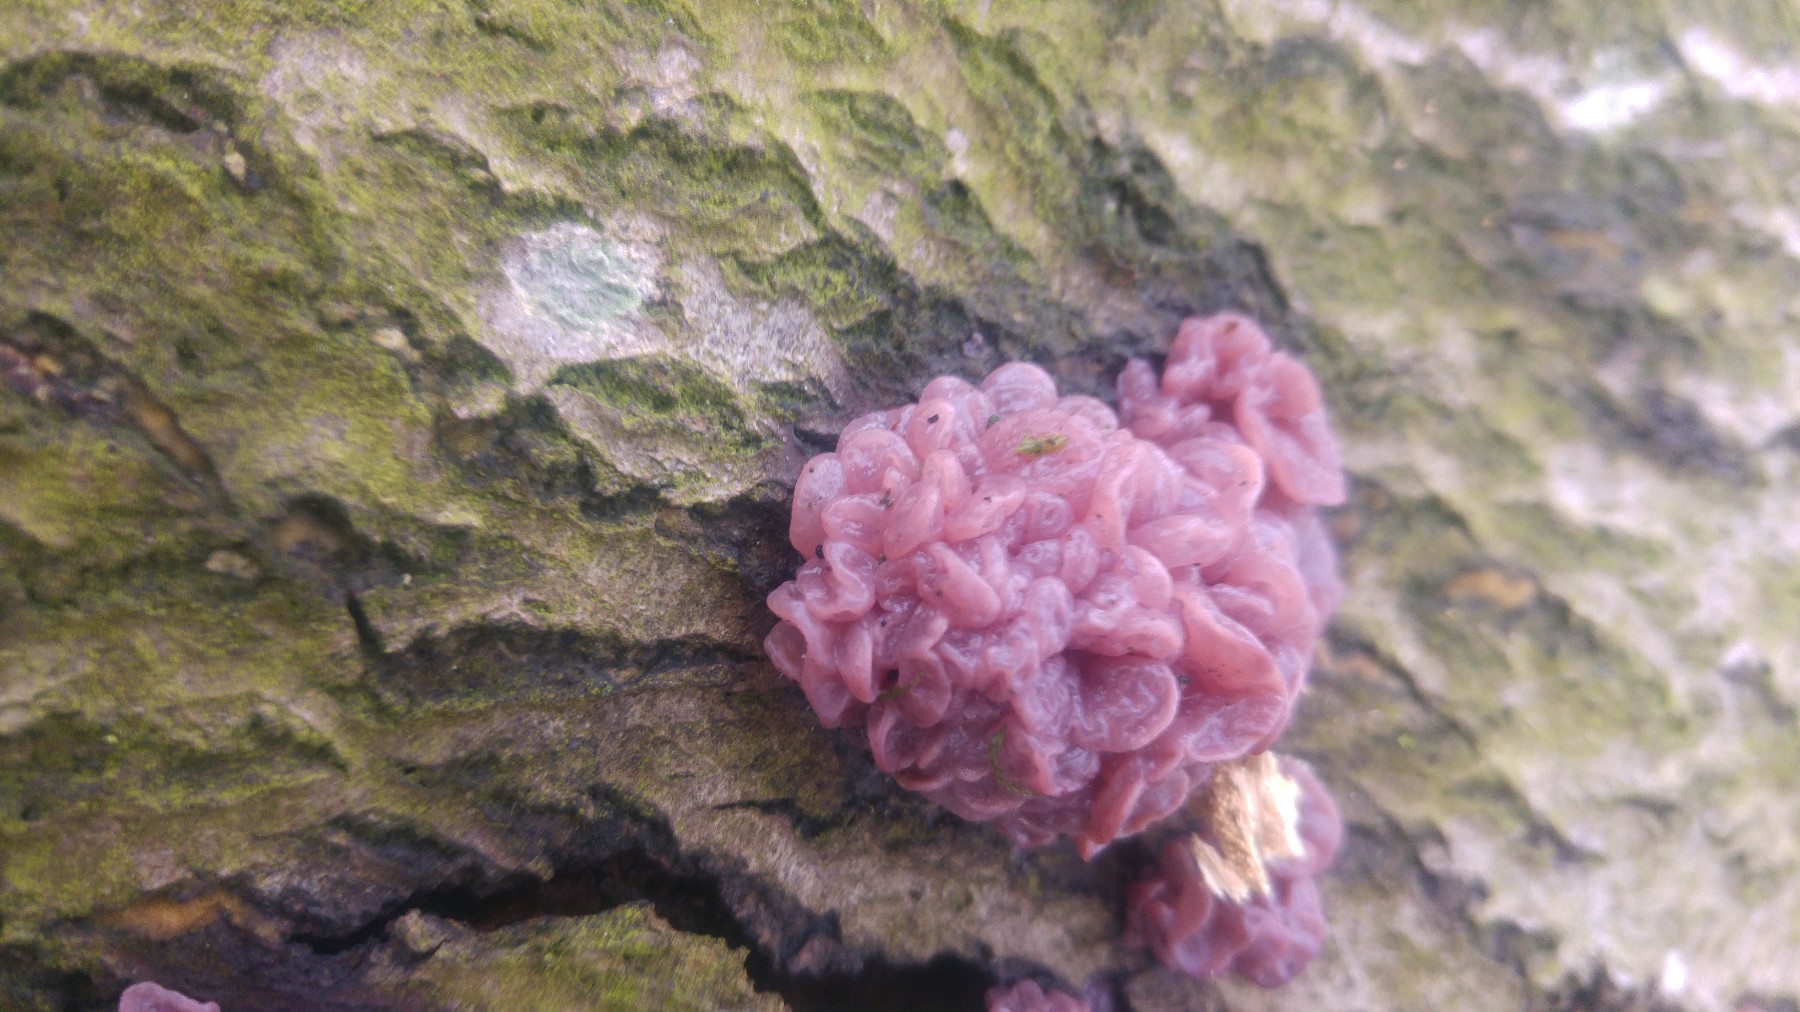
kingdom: Fungi
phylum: Ascomycota
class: Leotiomycetes
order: Helotiales
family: Gelatinodiscaceae
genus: Ascocoryne
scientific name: Ascocoryne sarcoides
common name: rødlilla sejskive
